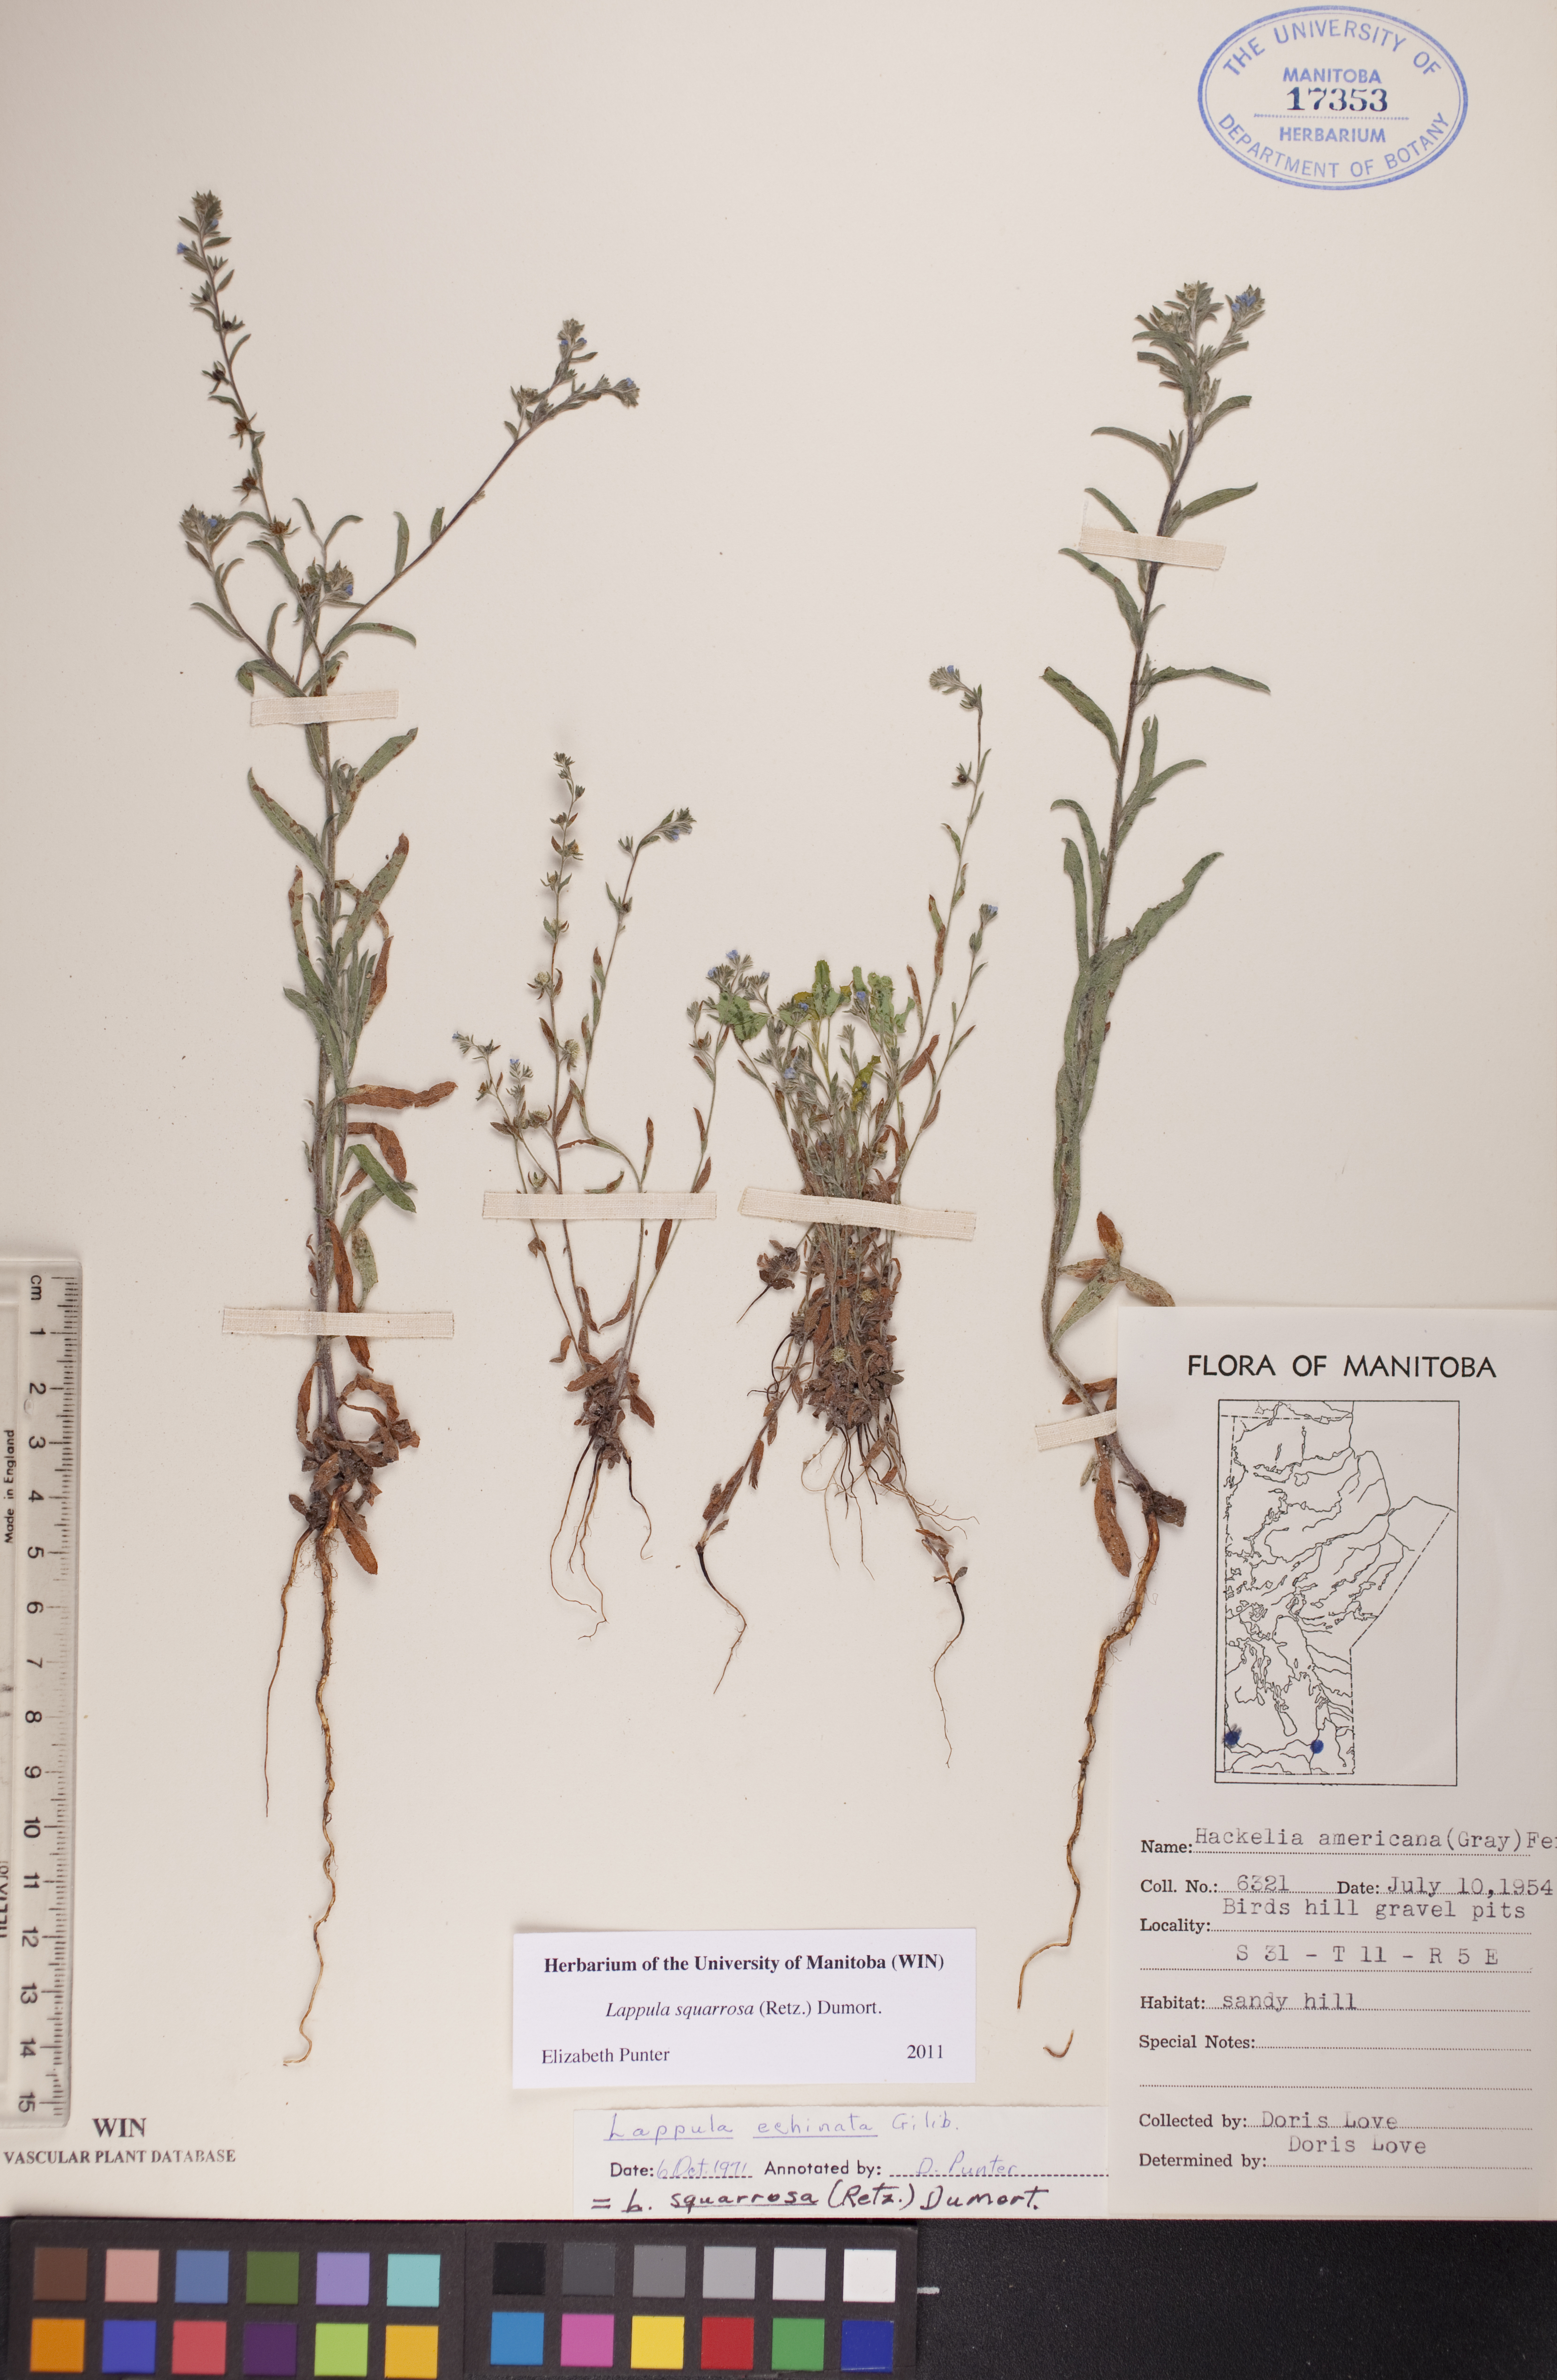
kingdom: Plantae
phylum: Tracheophyta
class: Magnoliopsida
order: Boraginales
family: Boraginaceae
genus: Lappula
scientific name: Lappula squarrosa
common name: European stickseed
